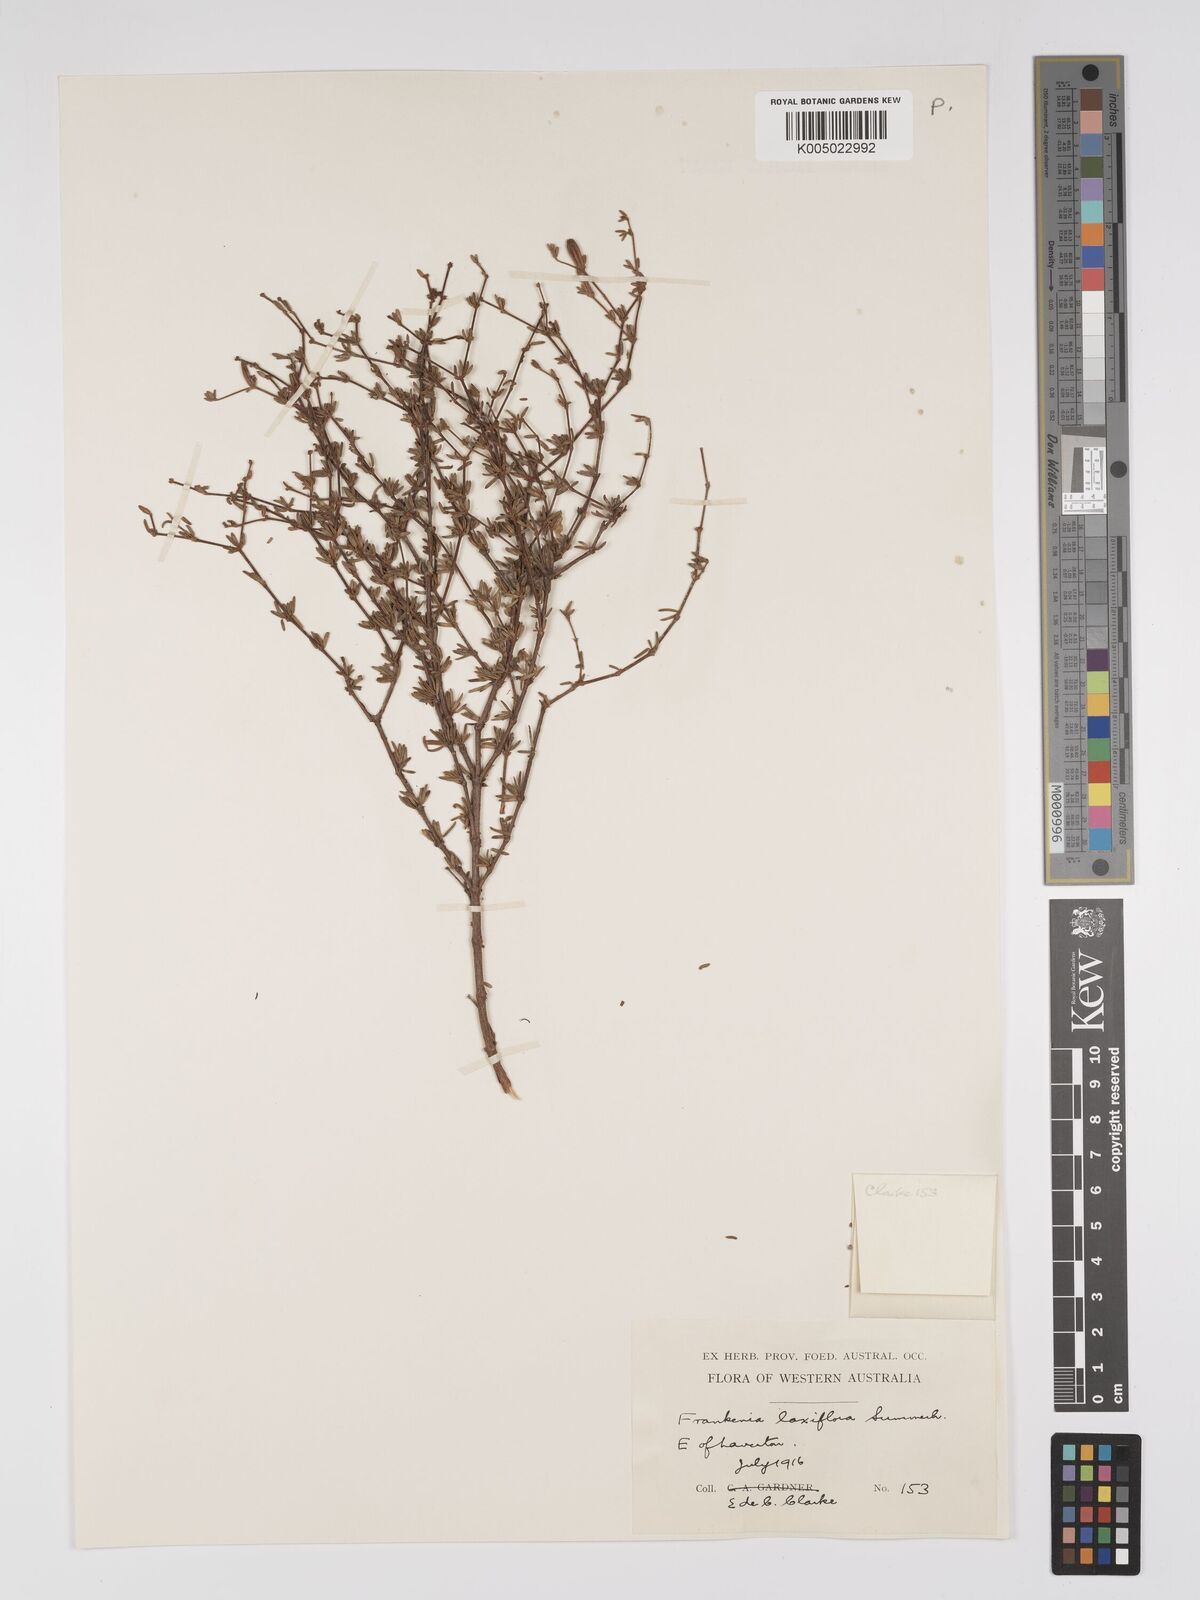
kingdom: Plantae
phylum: Tracheophyta
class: Magnoliopsida
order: Caryophyllales
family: Frankeniaceae
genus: Frankenia
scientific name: Frankenia laxiflora
